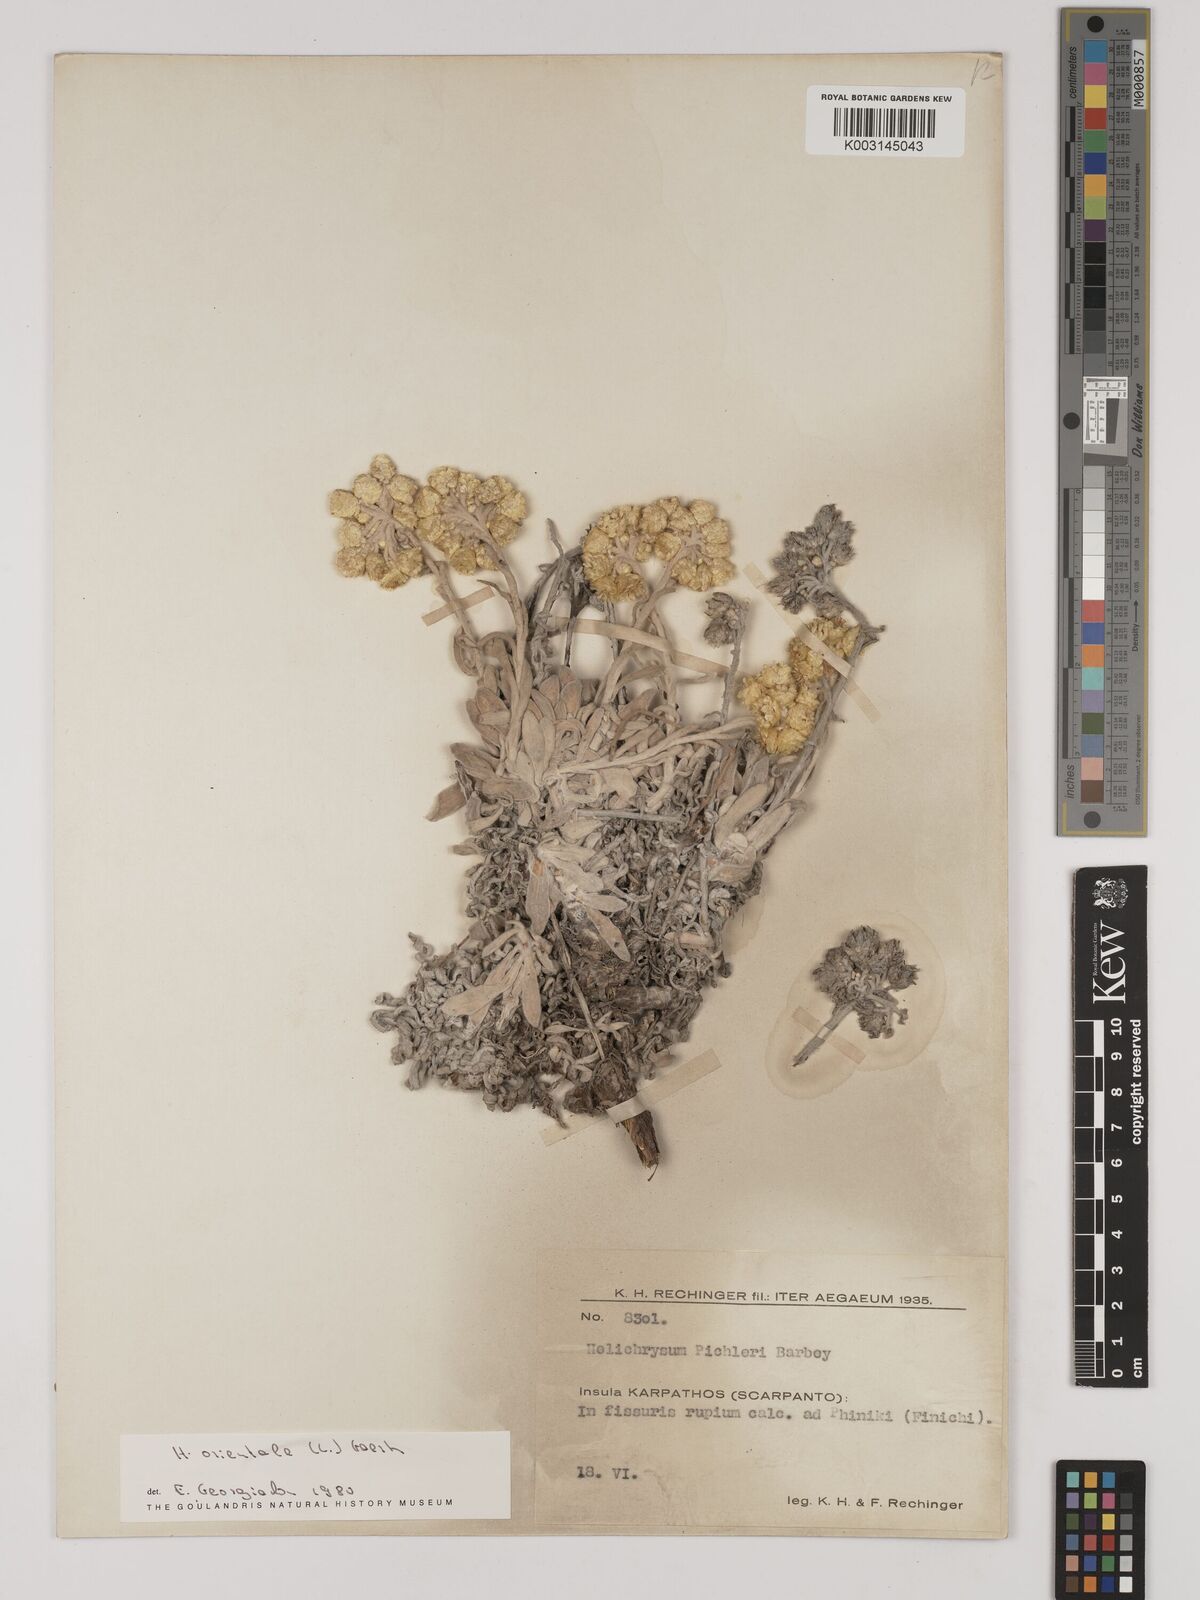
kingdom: Plantae
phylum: Tracheophyta
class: Magnoliopsida
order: Asterales
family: Asteraceae
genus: Helichrysum
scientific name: Helichrysum orientale
